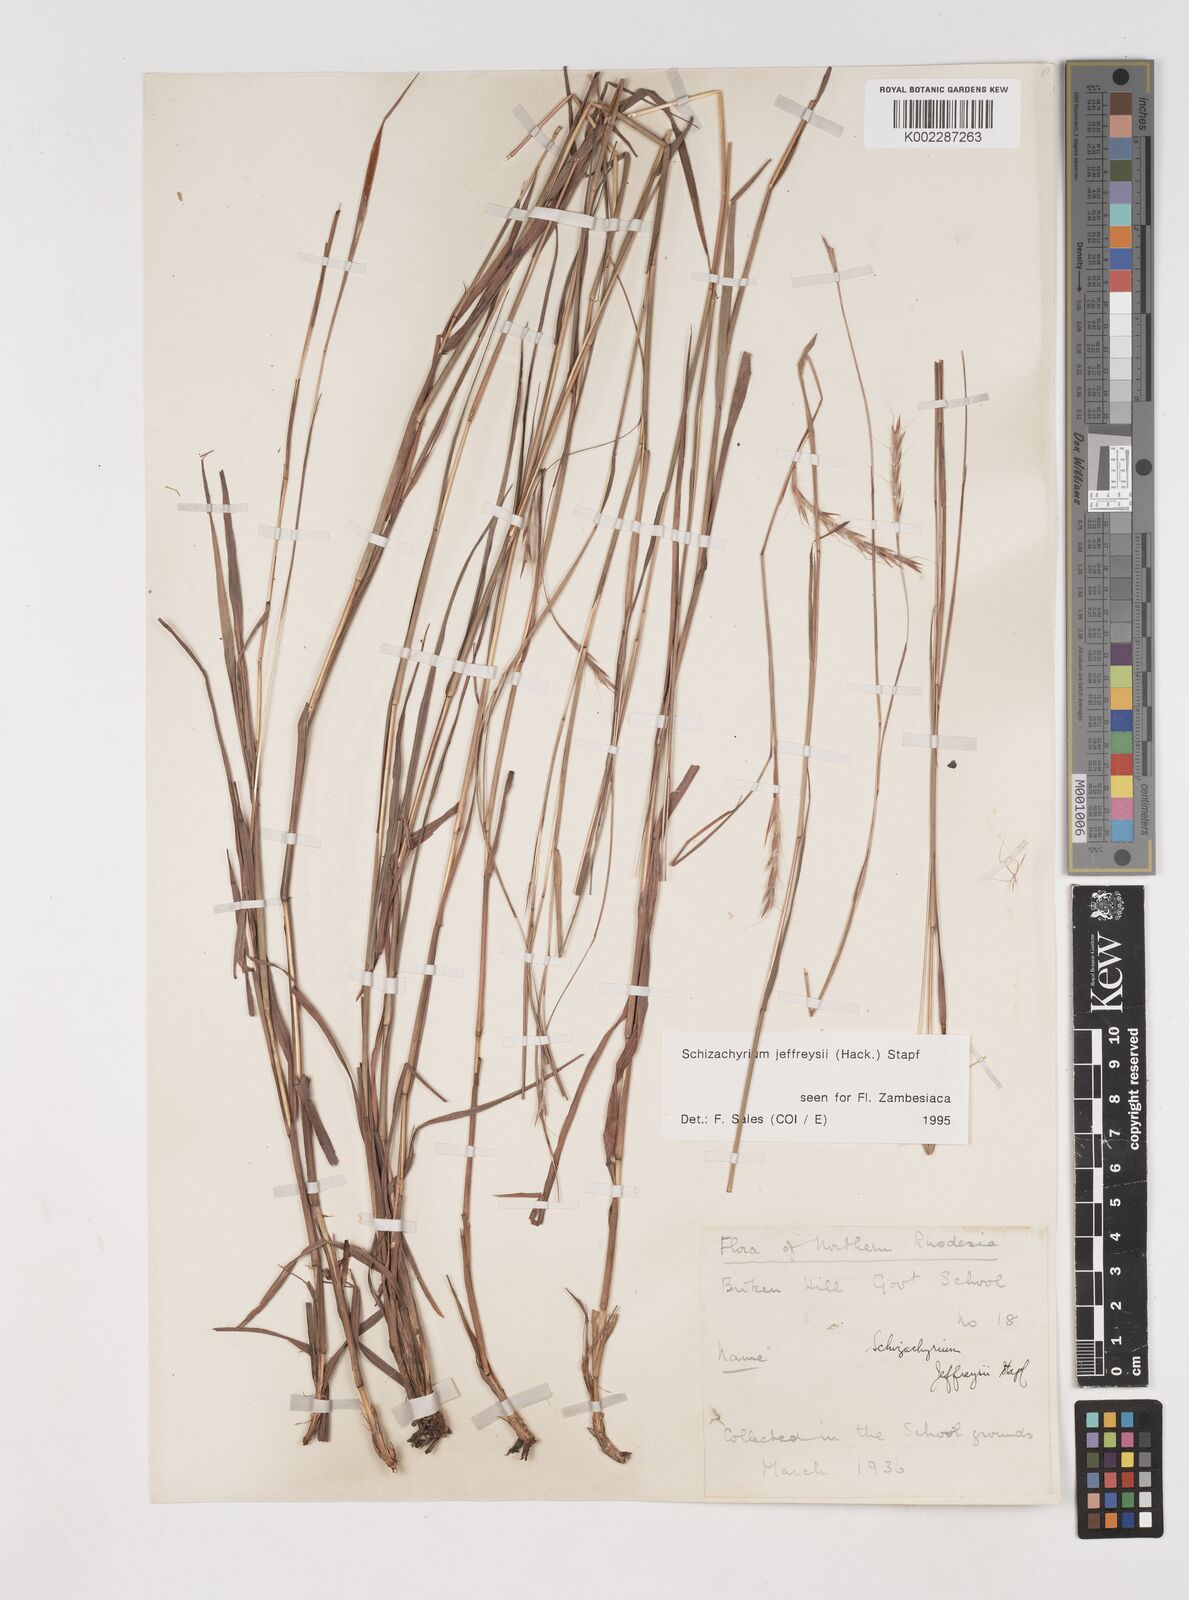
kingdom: Plantae
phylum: Tracheophyta
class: Liliopsida
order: Poales
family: Poaceae
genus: Schizachyrium
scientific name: Schizachyrium jeffreysii
